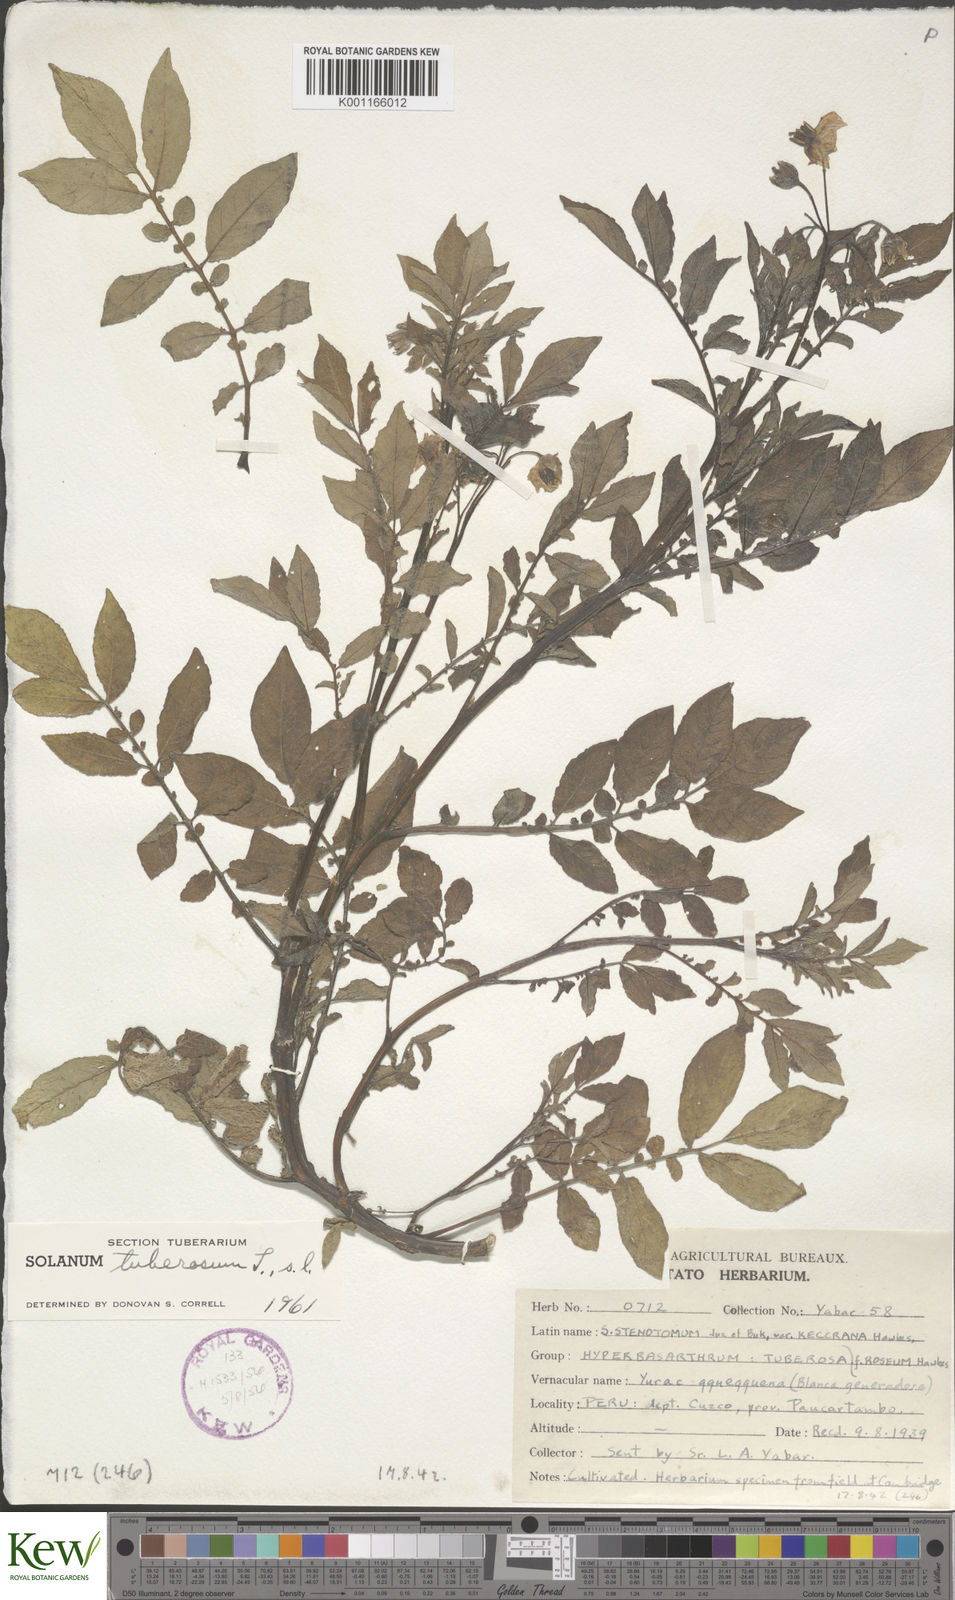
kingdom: Plantae
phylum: Tracheophyta
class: Magnoliopsida
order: Solanales
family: Solanaceae
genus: Solanum
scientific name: Solanum tuberosum
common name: Potato
